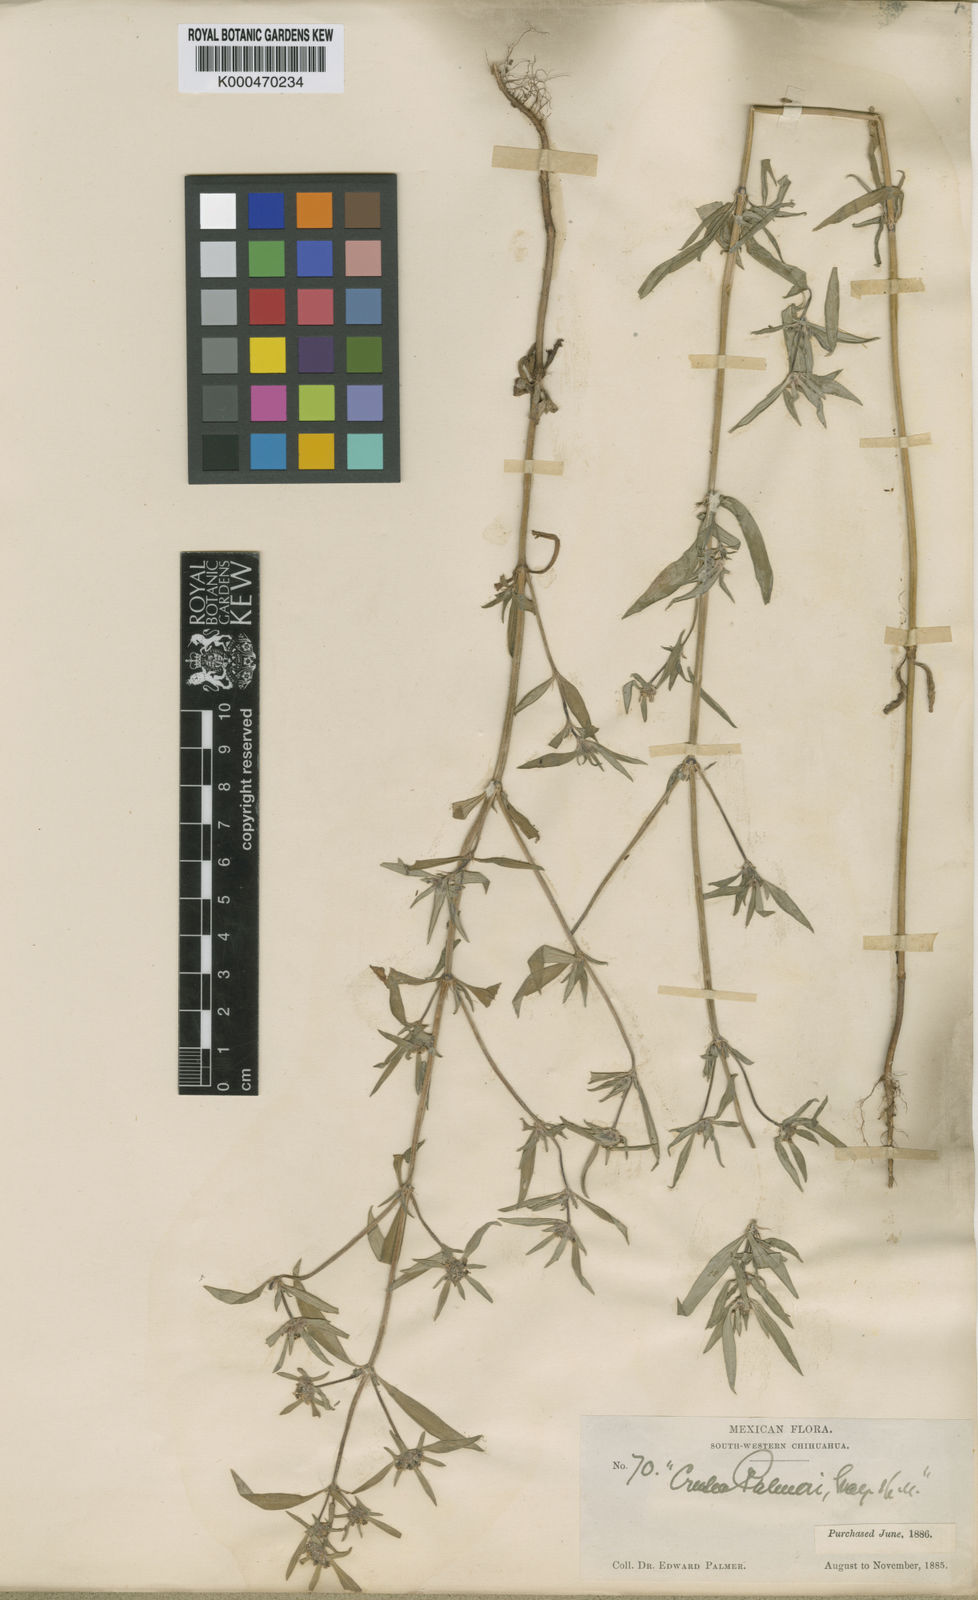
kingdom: Plantae
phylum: Tracheophyta
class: Magnoliopsida
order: Gentianales
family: Rubiaceae
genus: Crusea
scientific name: Crusea psyllioides
